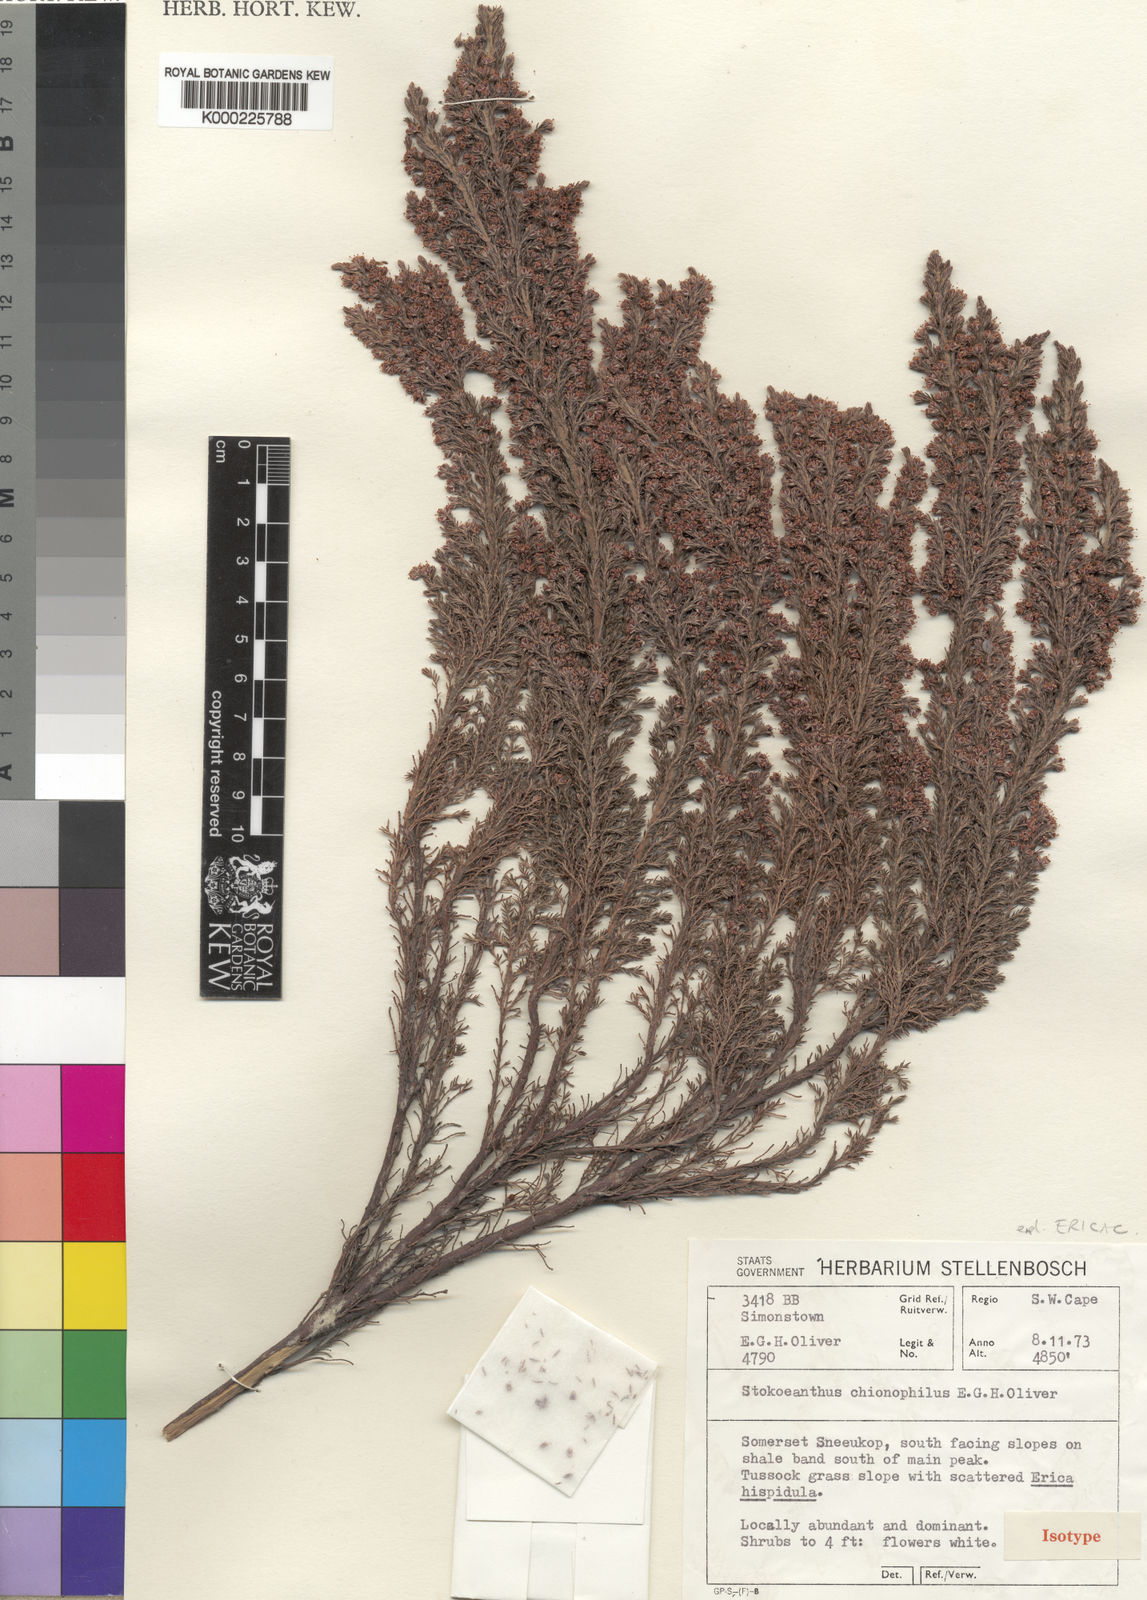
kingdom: Plantae
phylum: Tracheophyta
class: Magnoliopsida
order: Ericales
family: Ericaceae
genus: Erica
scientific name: Erica stokoeanthus
